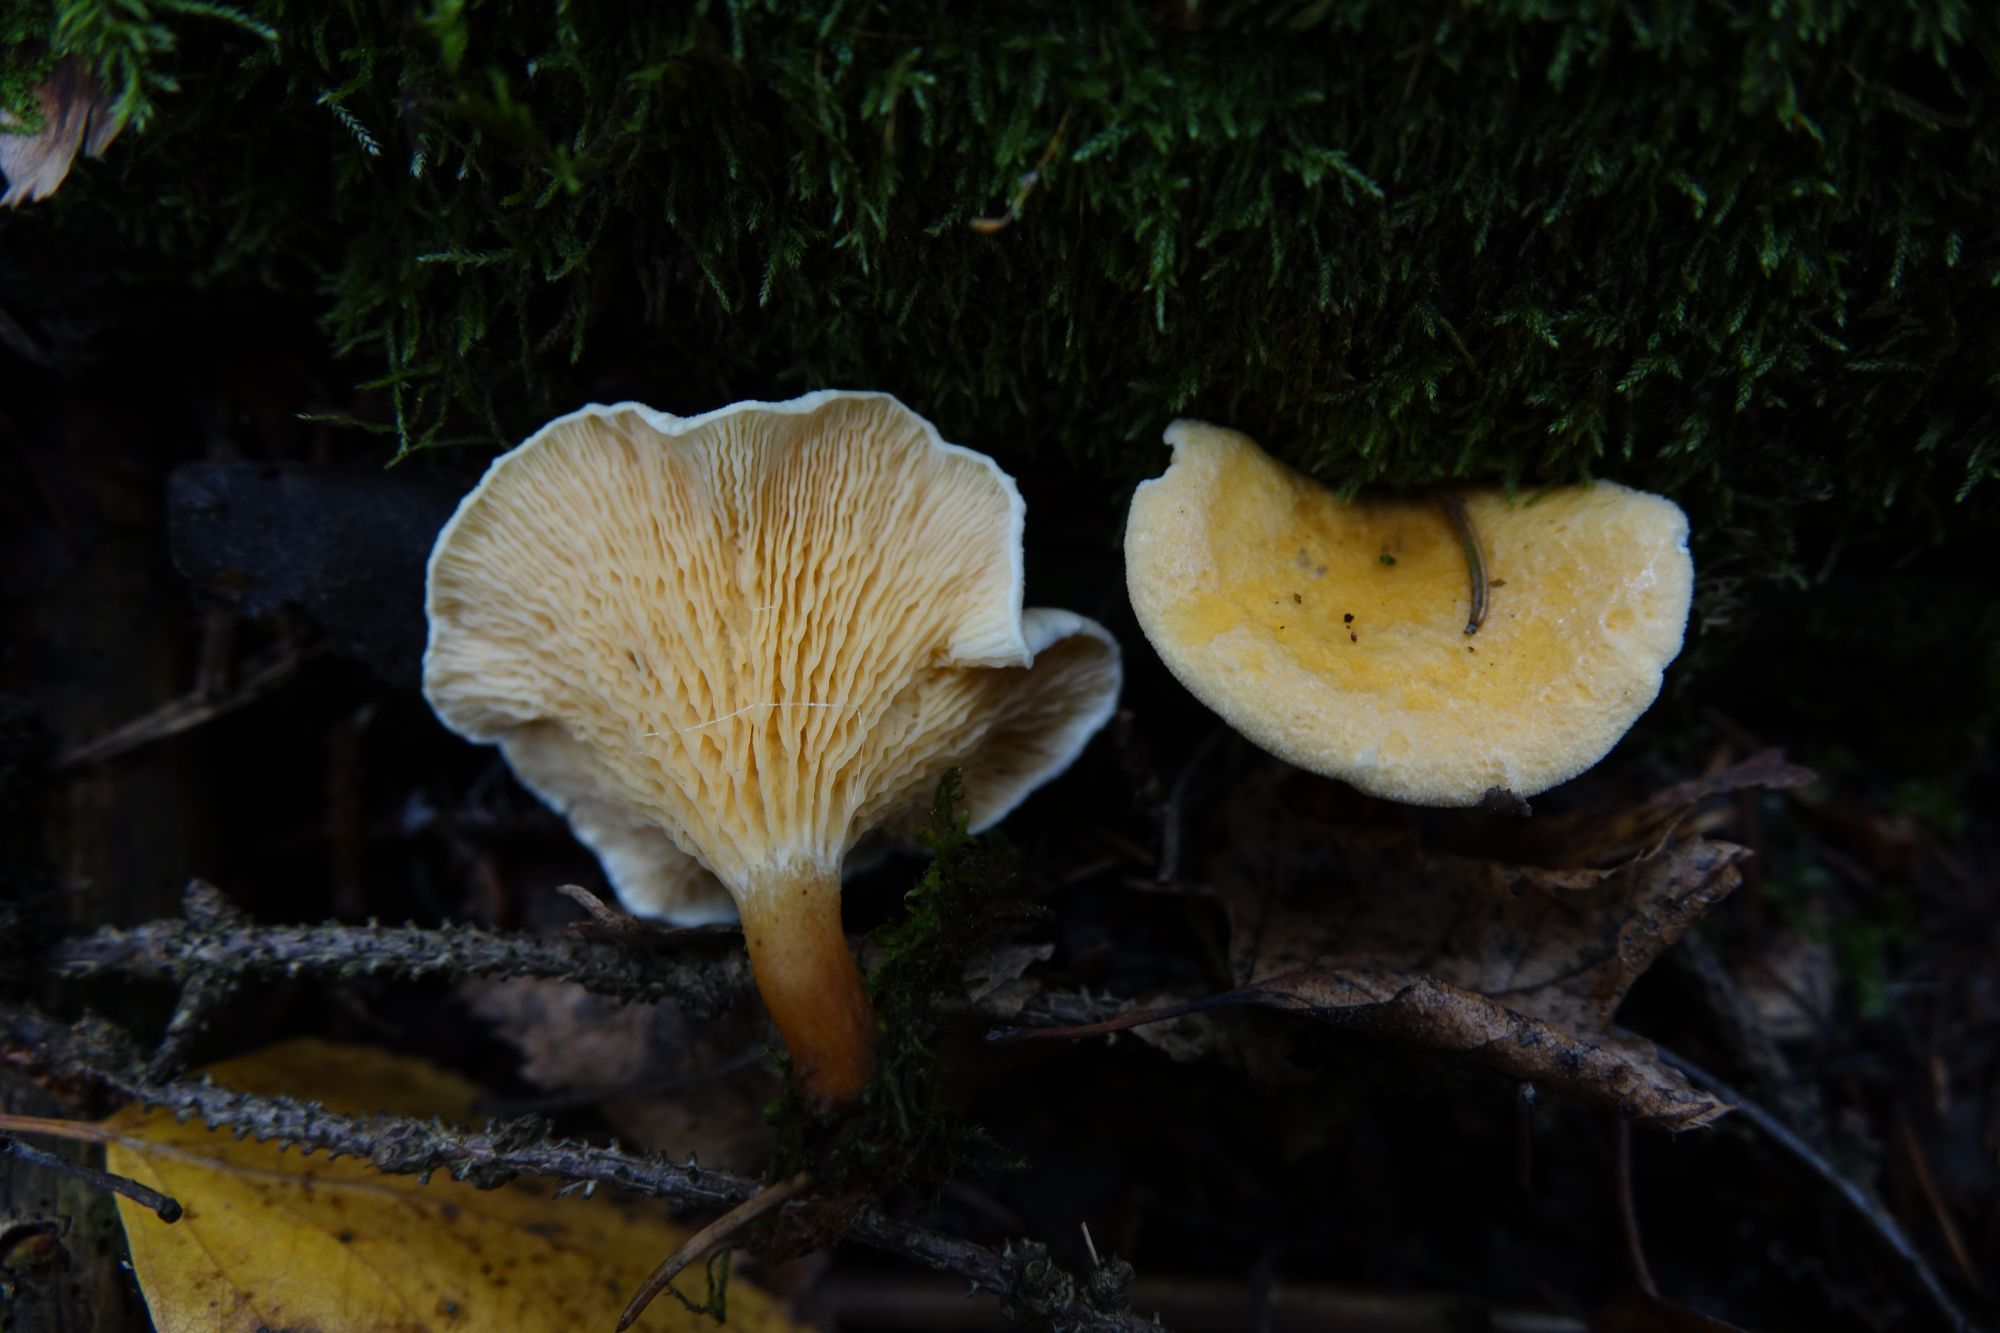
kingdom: Fungi
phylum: Basidiomycota
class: Agaricomycetes
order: Boletales
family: Hygrophoropsidaceae
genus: Hygrophoropsis
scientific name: Hygrophoropsis aurantiaca
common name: False chanterelle
